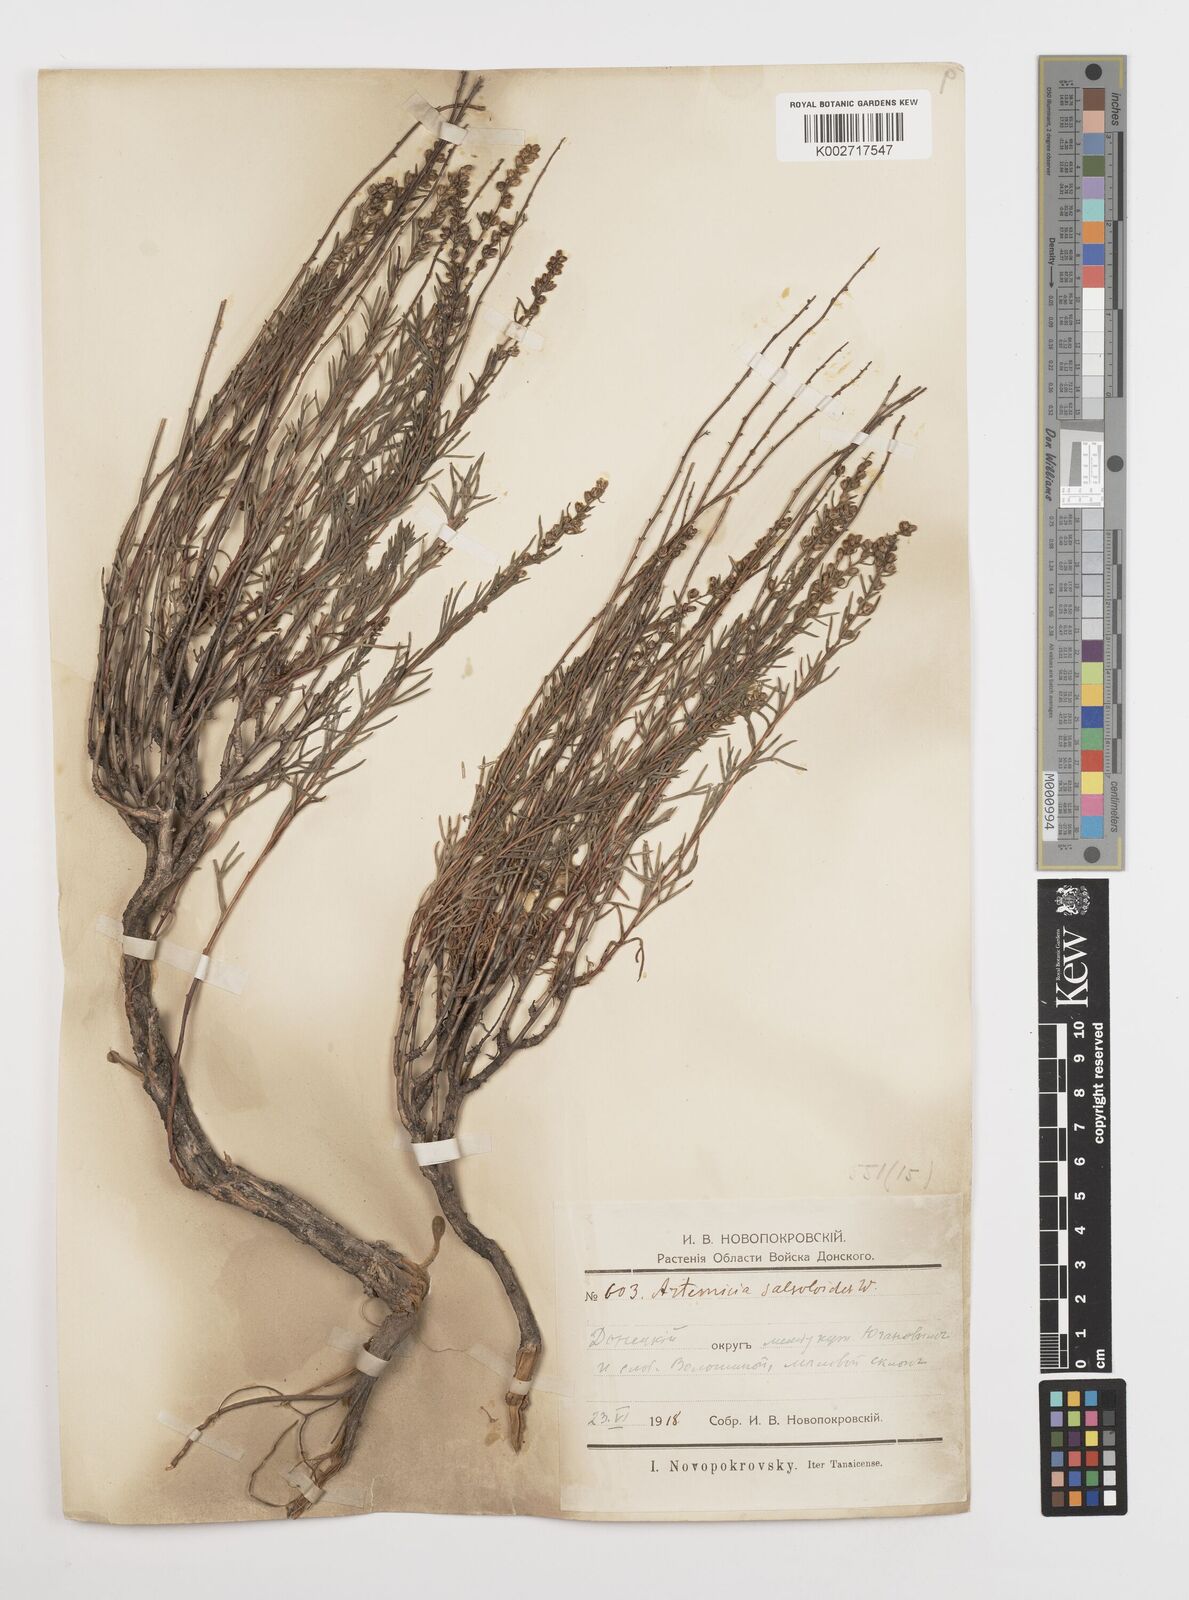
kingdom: Plantae
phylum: Tracheophyta
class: Magnoliopsida
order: Asterales
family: Asteraceae
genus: Artemisia
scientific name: Artemisia salsoloides
